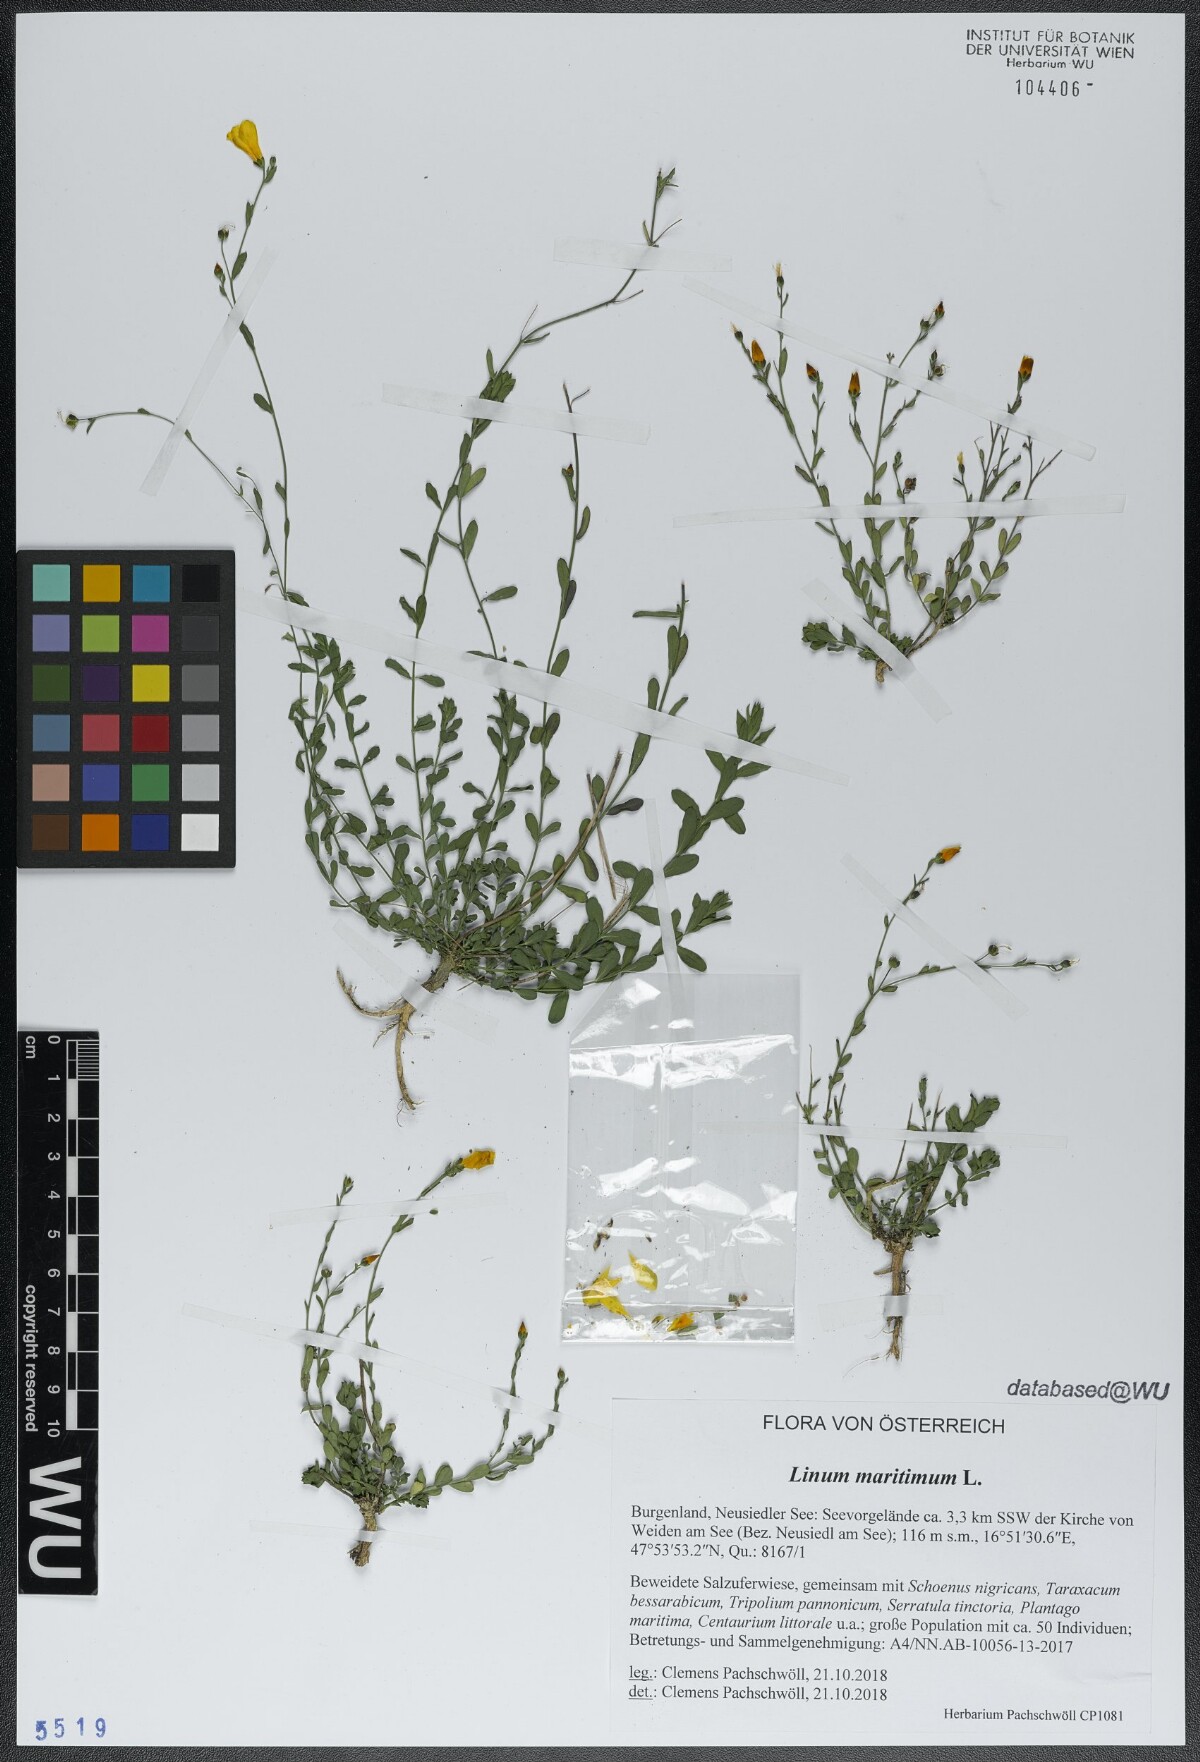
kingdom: Plantae
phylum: Tracheophyta
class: Magnoliopsida
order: Malpighiales
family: Linaceae
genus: Linum
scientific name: Linum maritimum
